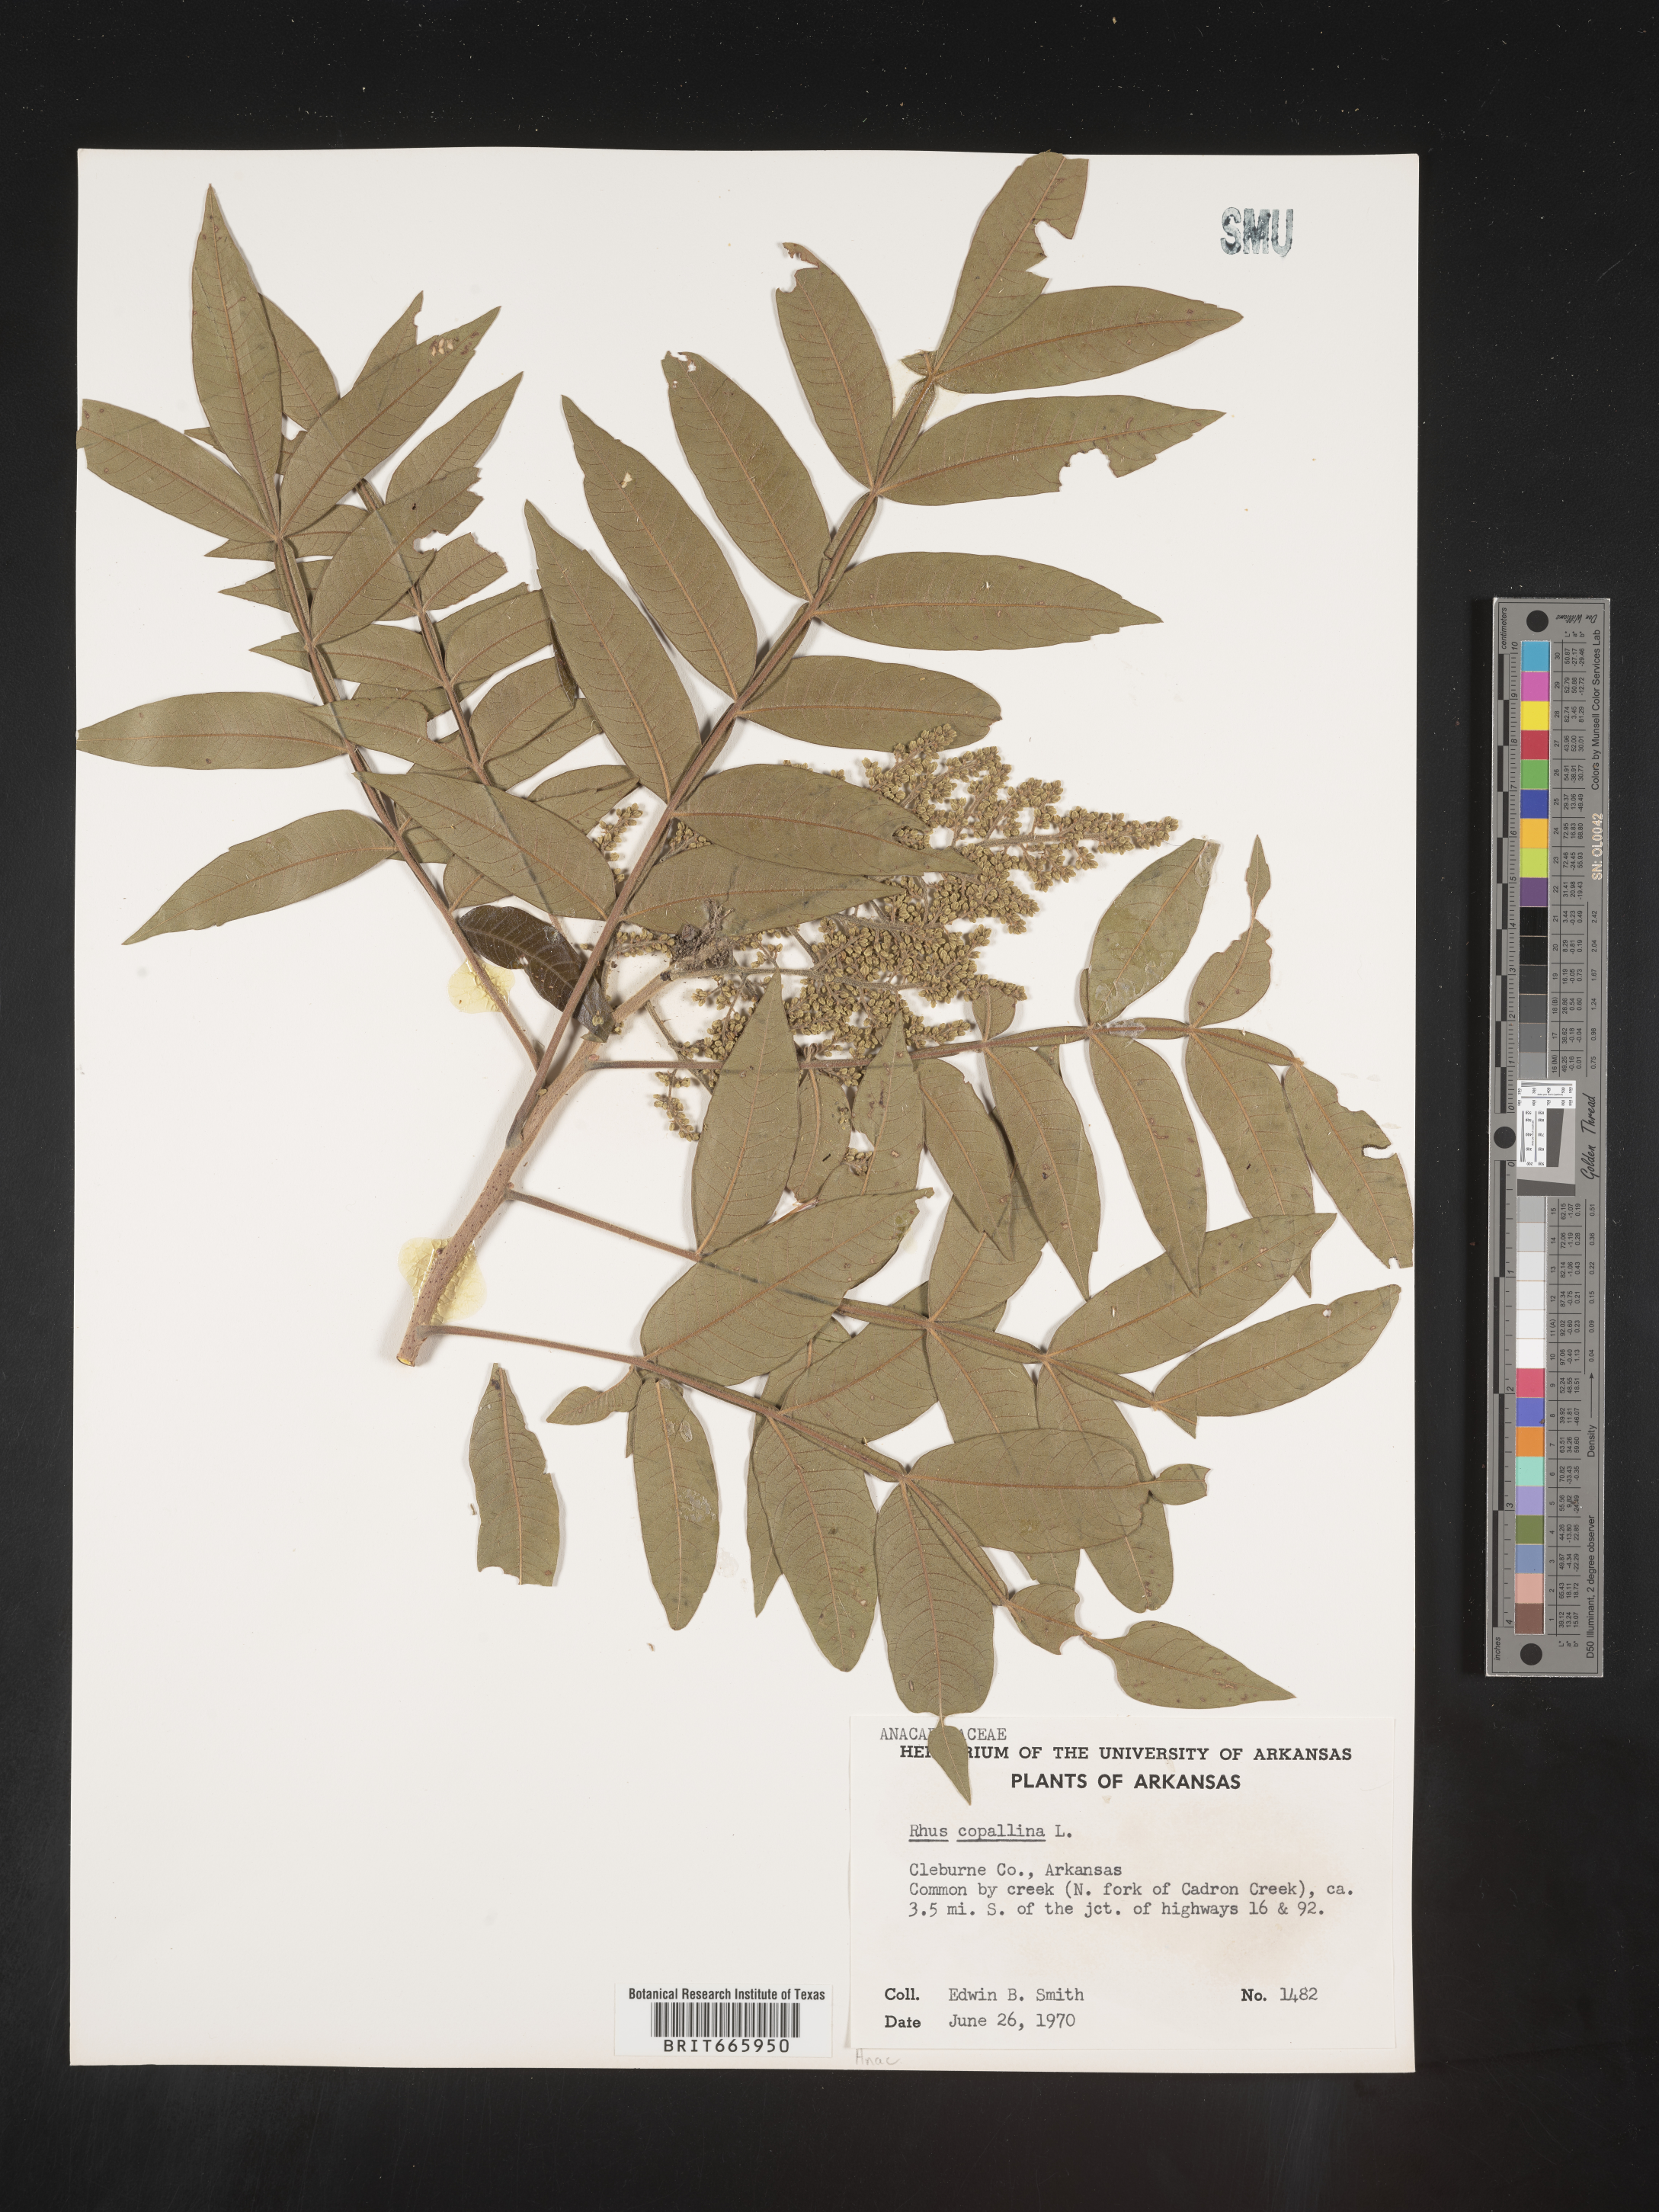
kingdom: Plantae
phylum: Tracheophyta
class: Magnoliopsida
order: Sapindales
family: Anacardiaceae
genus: Rhus
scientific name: Rhus copallina
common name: Shining sumac
